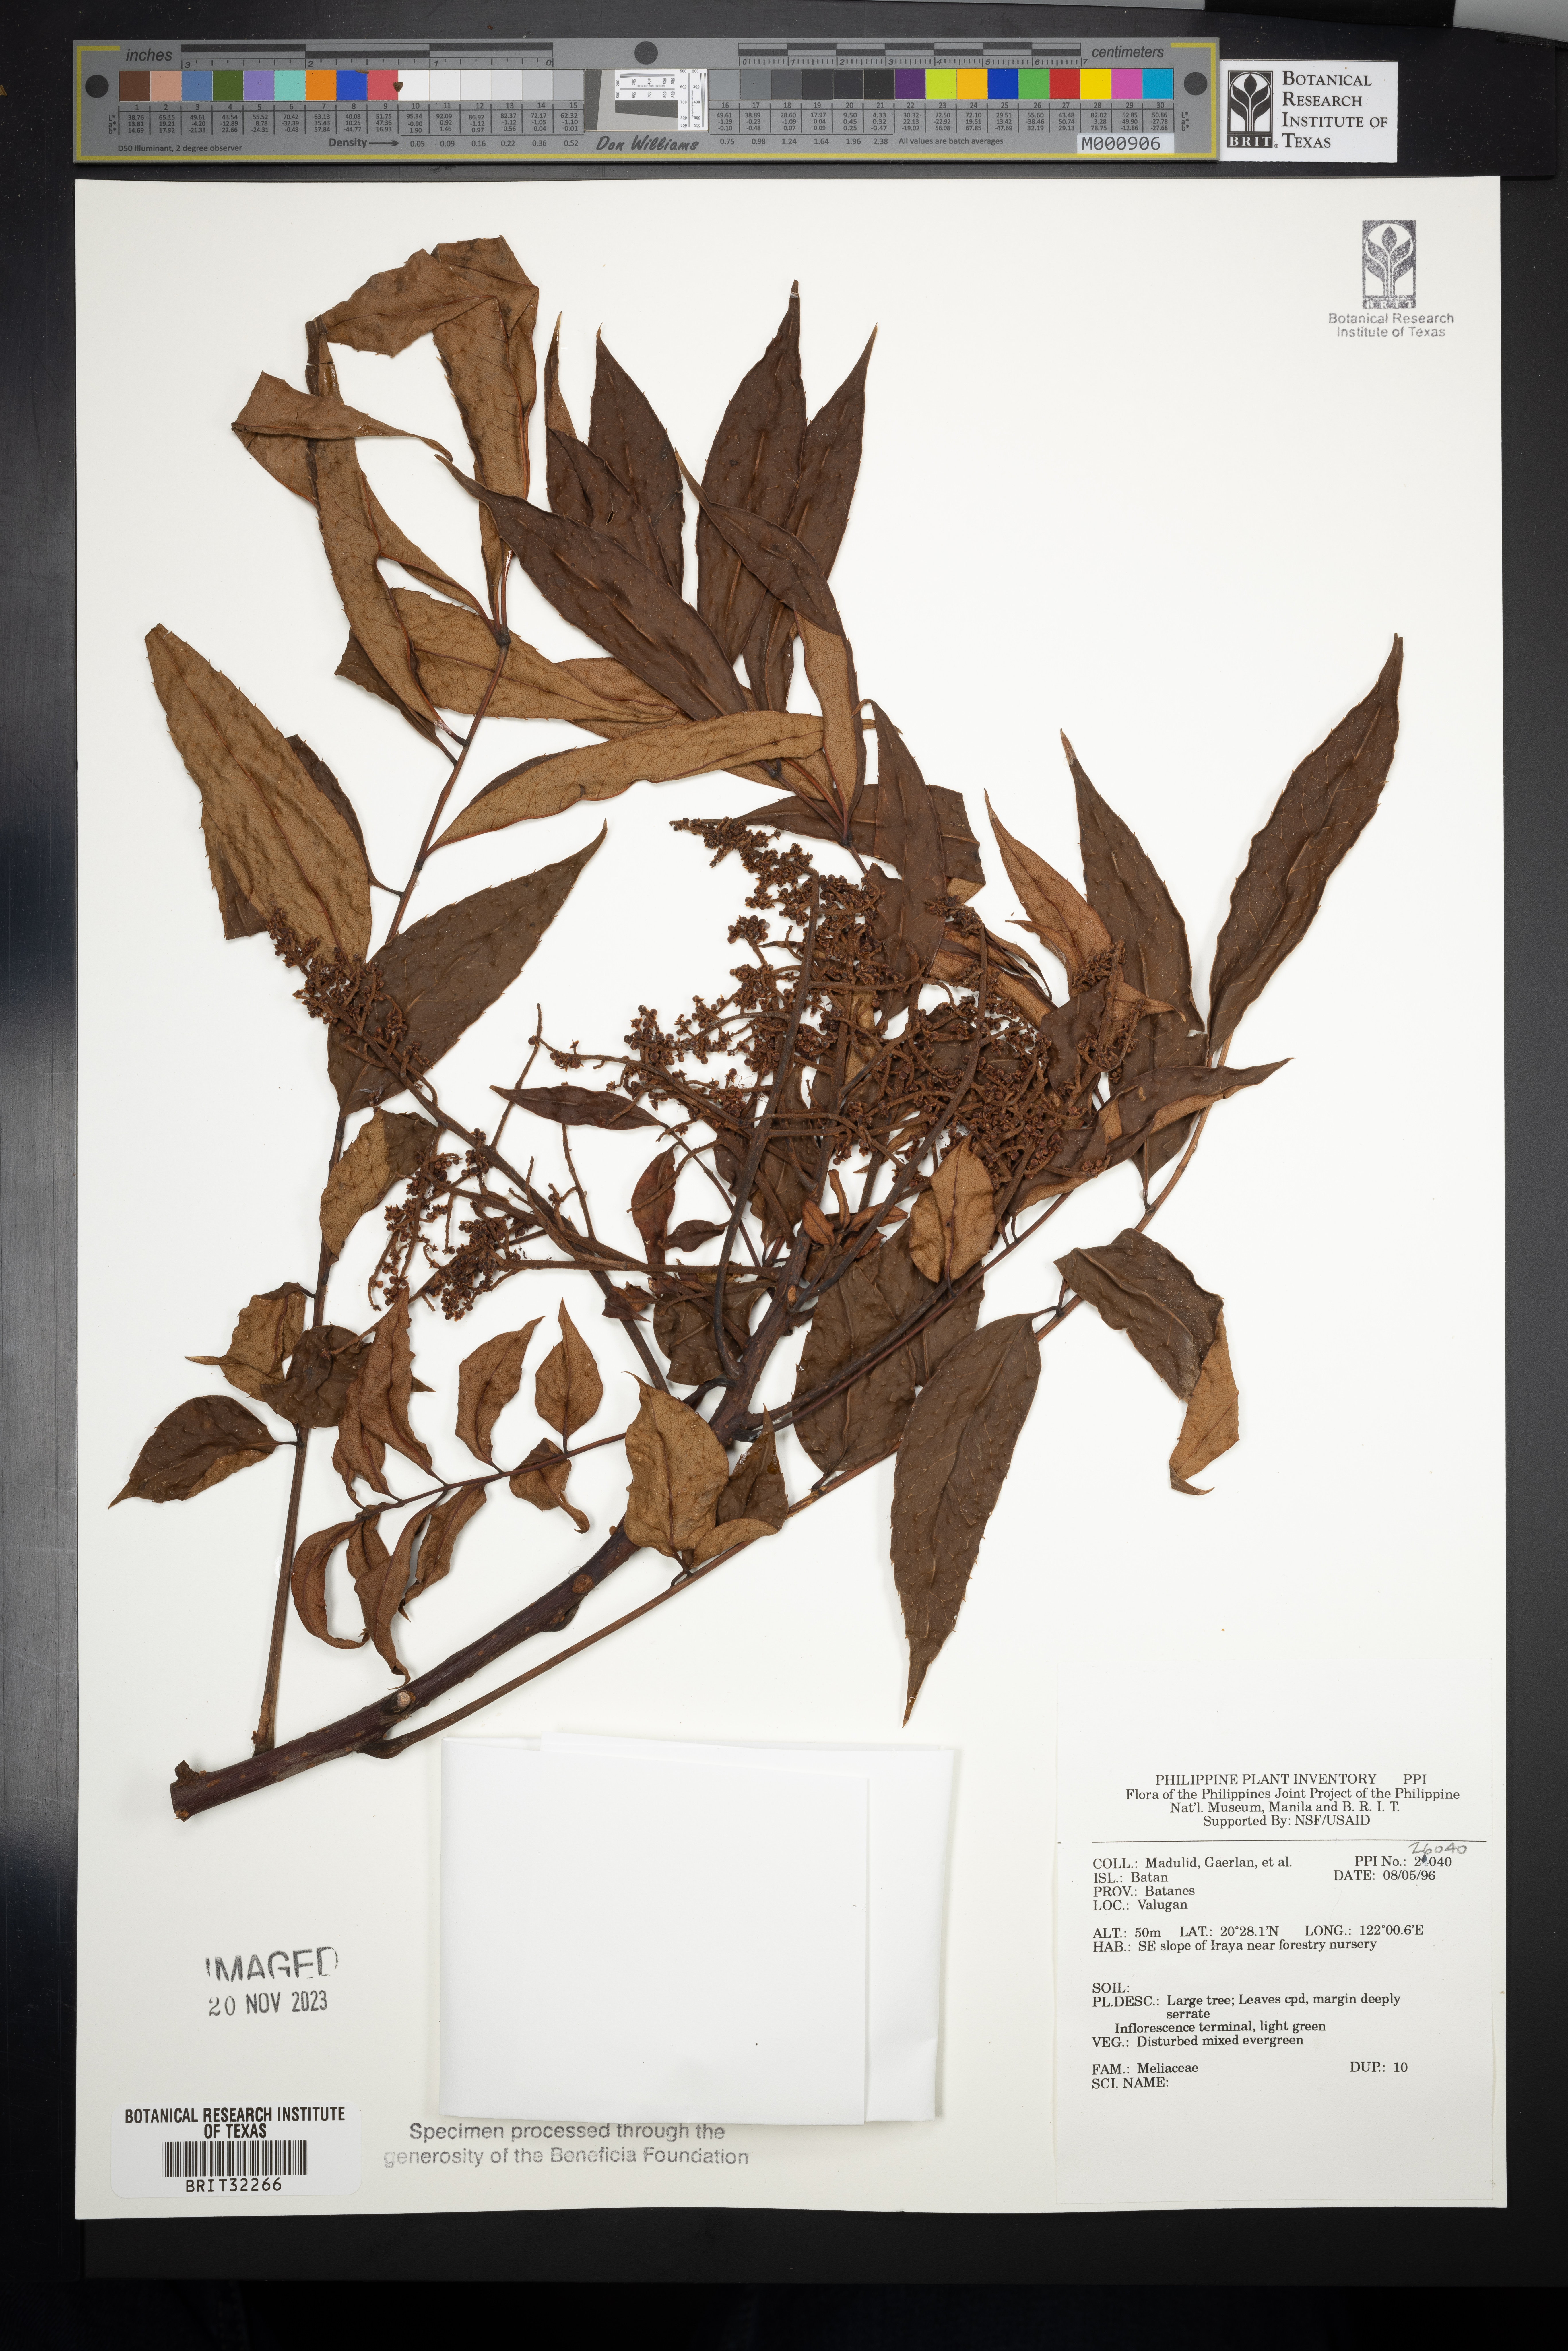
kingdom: Plantae
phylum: Tracheophyta
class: Magnoliopsida
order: Sapindales
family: Meliaceae
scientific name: Meliaceae
